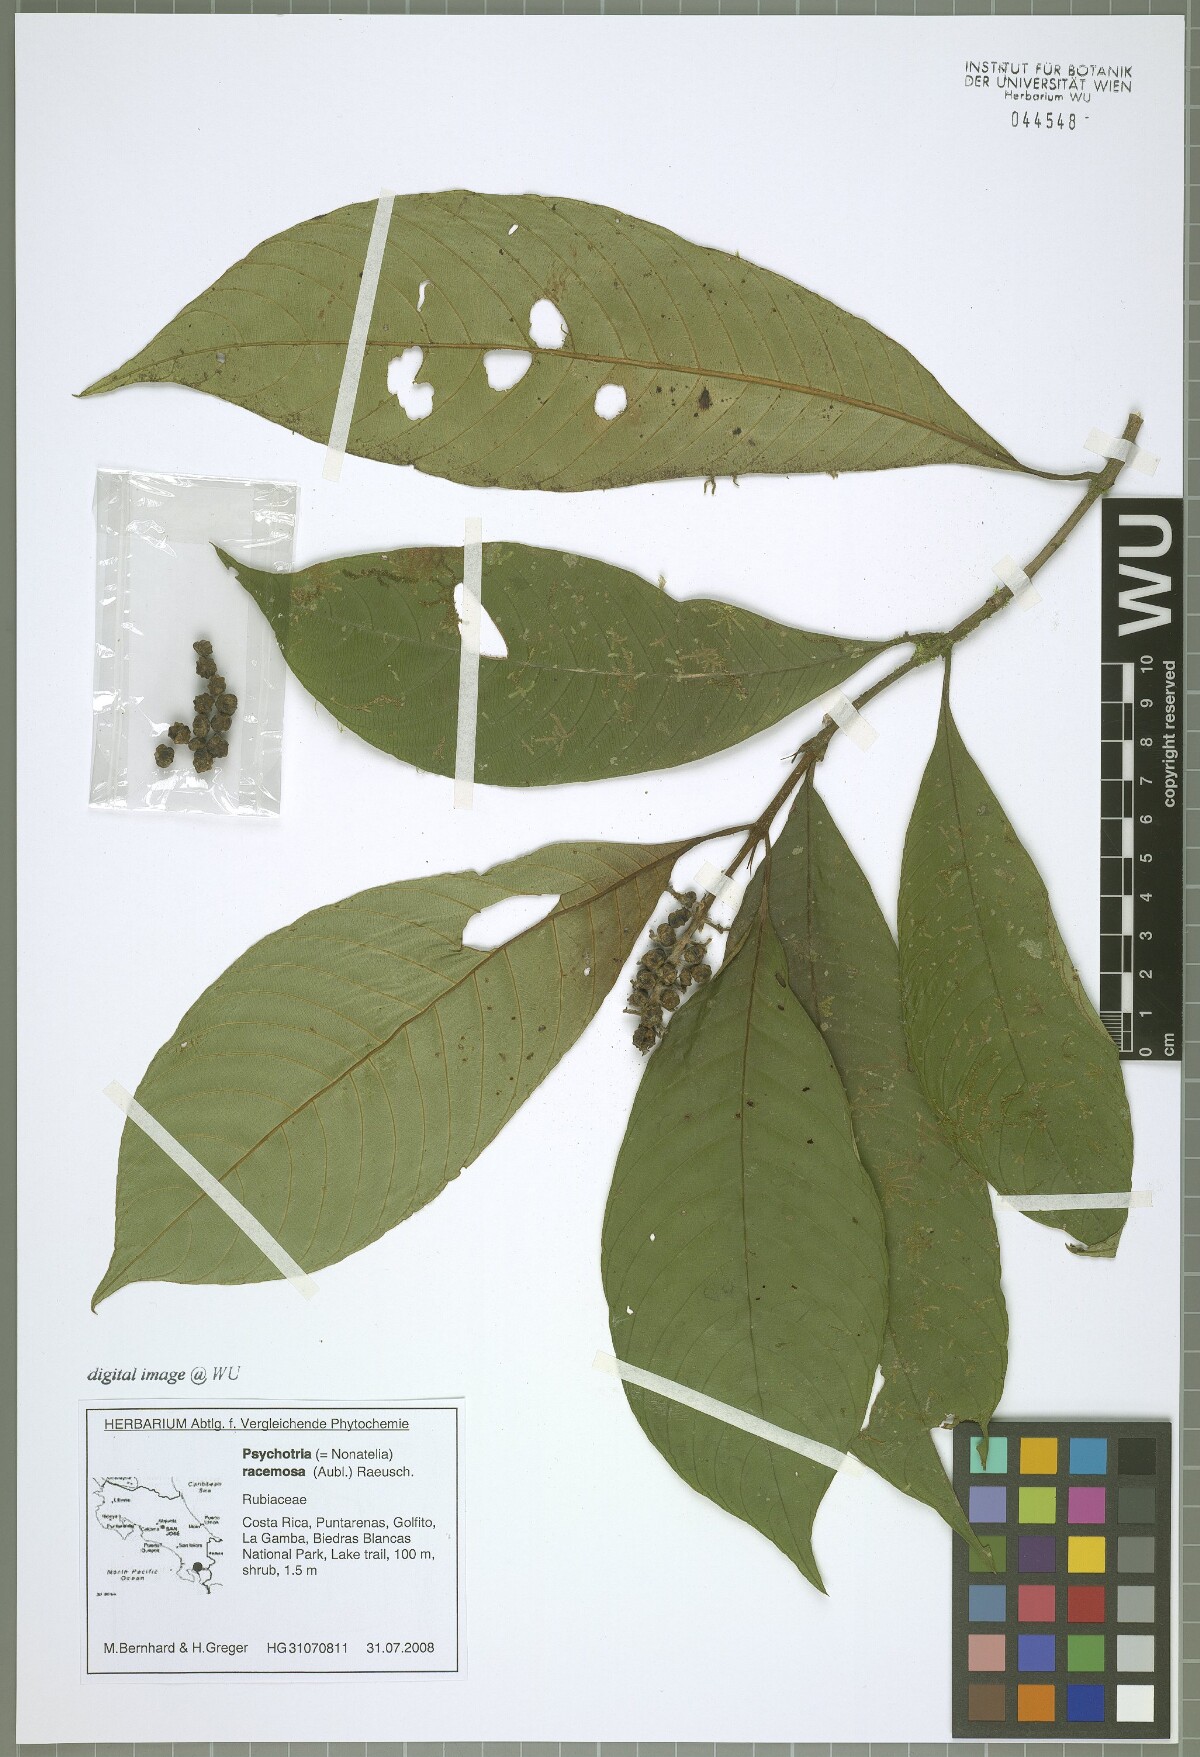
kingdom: Plantae
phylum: Tracheophyta
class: Magnoliopsida
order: Gentianales
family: Rubiaceae
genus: Palicourea
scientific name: Palicourea tsakiana
